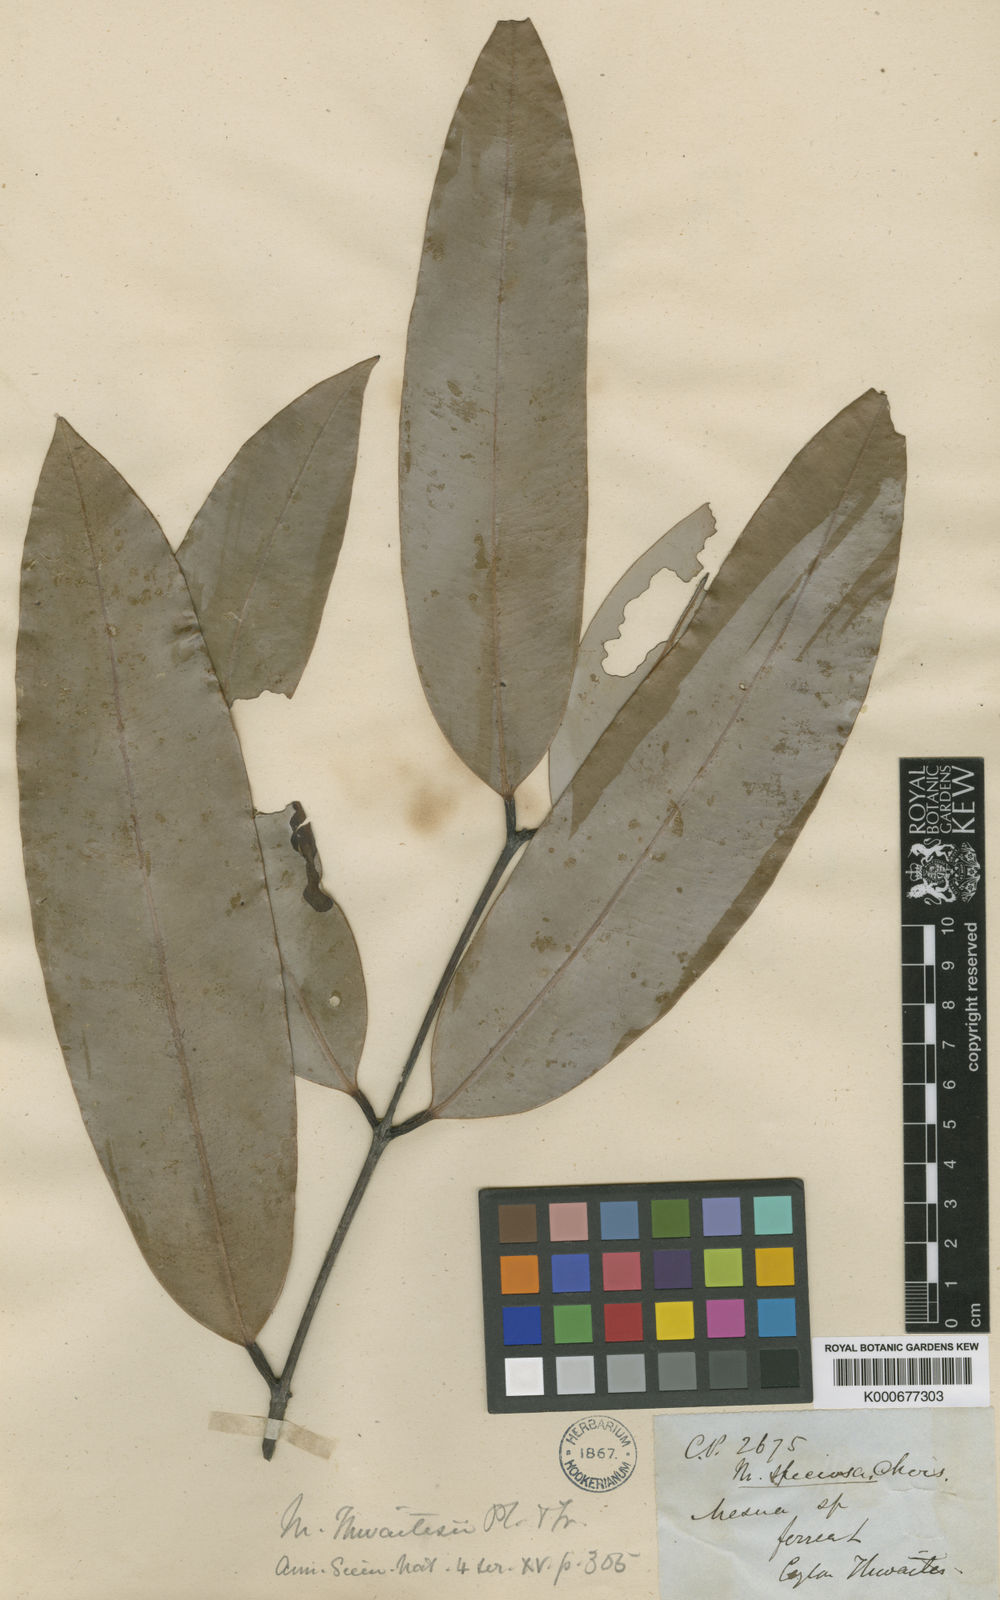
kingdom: Plantae
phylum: Tracheophyta
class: Magnoliopsida
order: Malpighiales
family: Calophyllaceae
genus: Mesua
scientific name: Mesua thwaitesii
